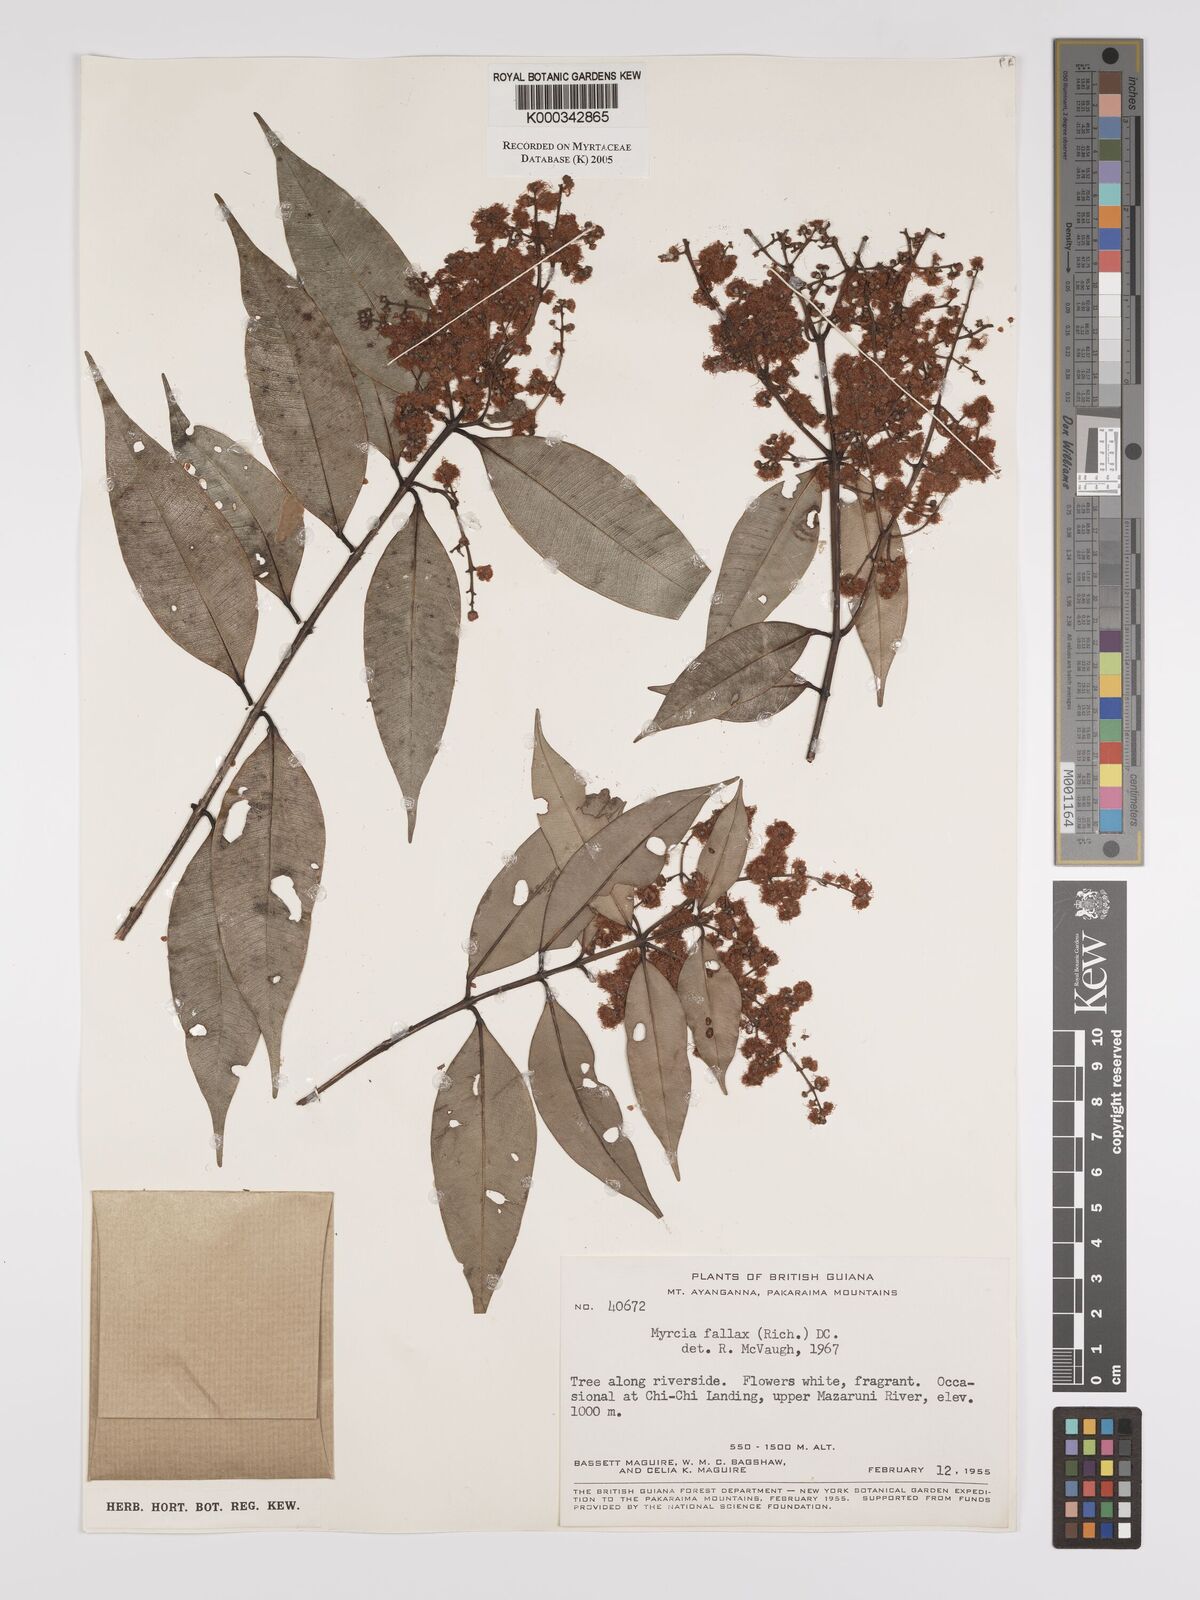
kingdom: Plantae
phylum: Tracheophyta
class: Magnoliopsida
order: Myrtales
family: Myrtaceae
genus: Myrcia
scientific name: Myrcia splendens
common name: Surinam cherry
